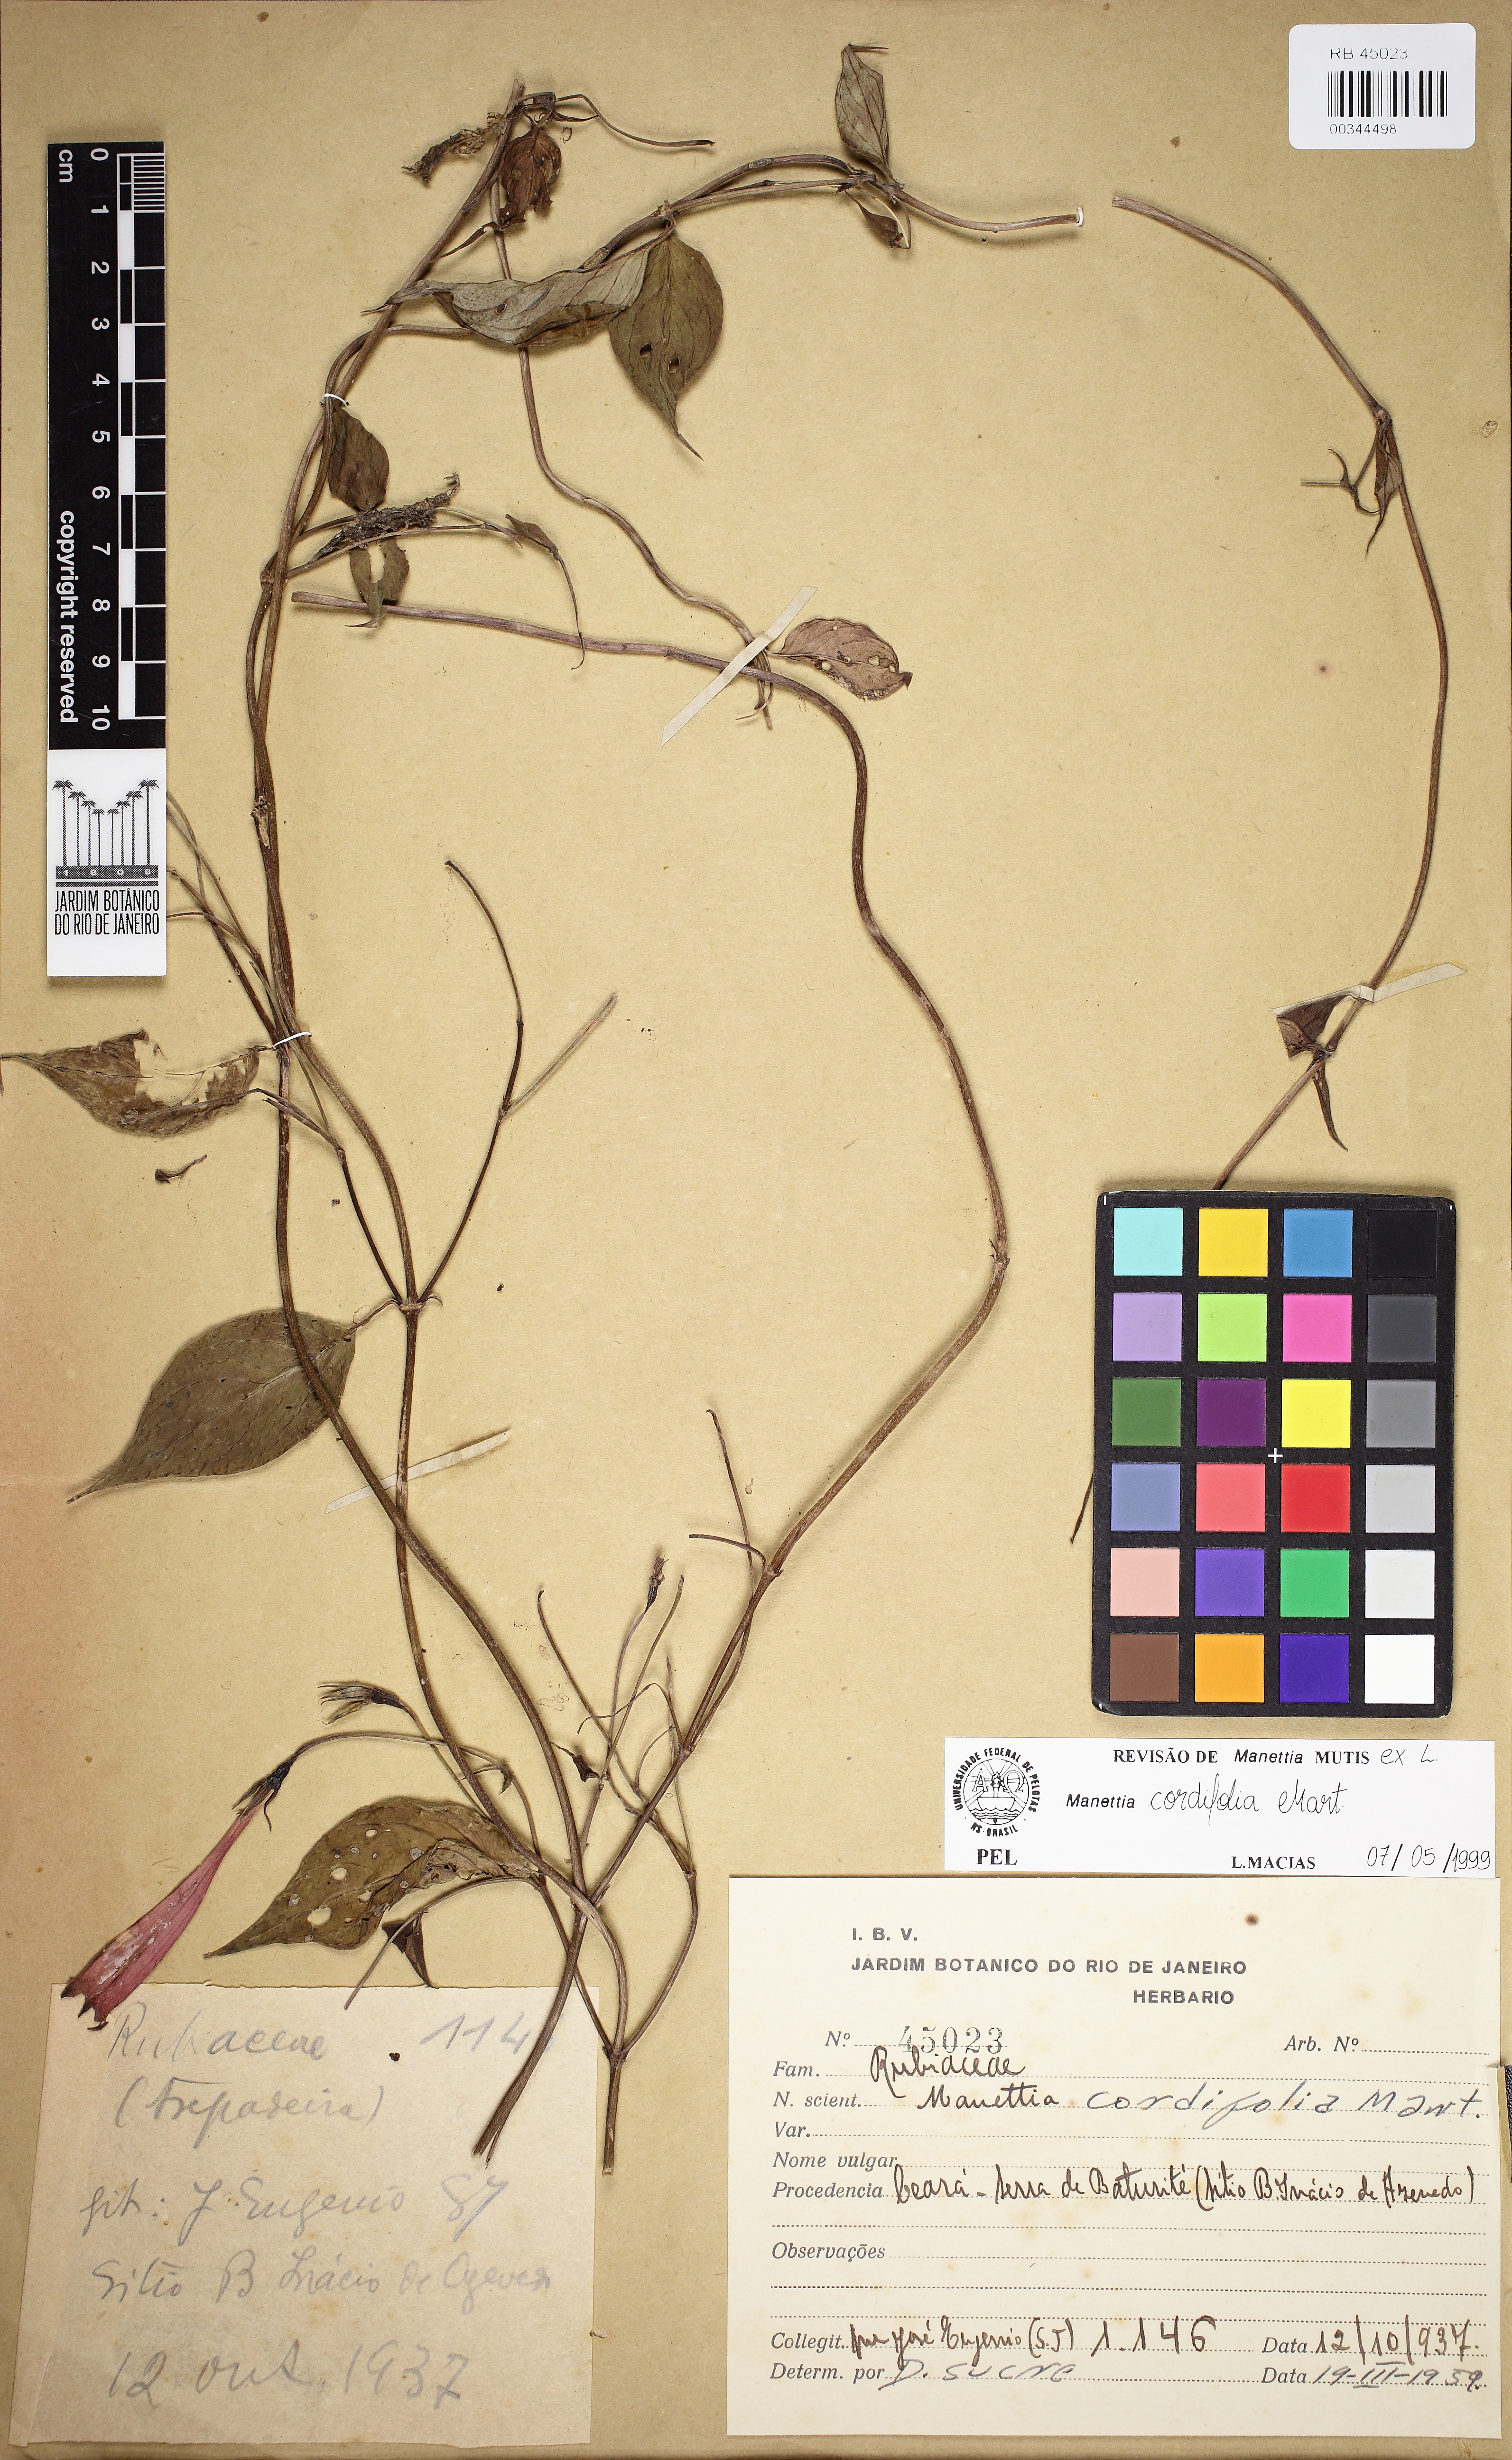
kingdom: Plantae
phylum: Tracheophyta
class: Magnoliopsida
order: Gentianales
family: Rubiaceae
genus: Manettia
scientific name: Manettia cordifolia
